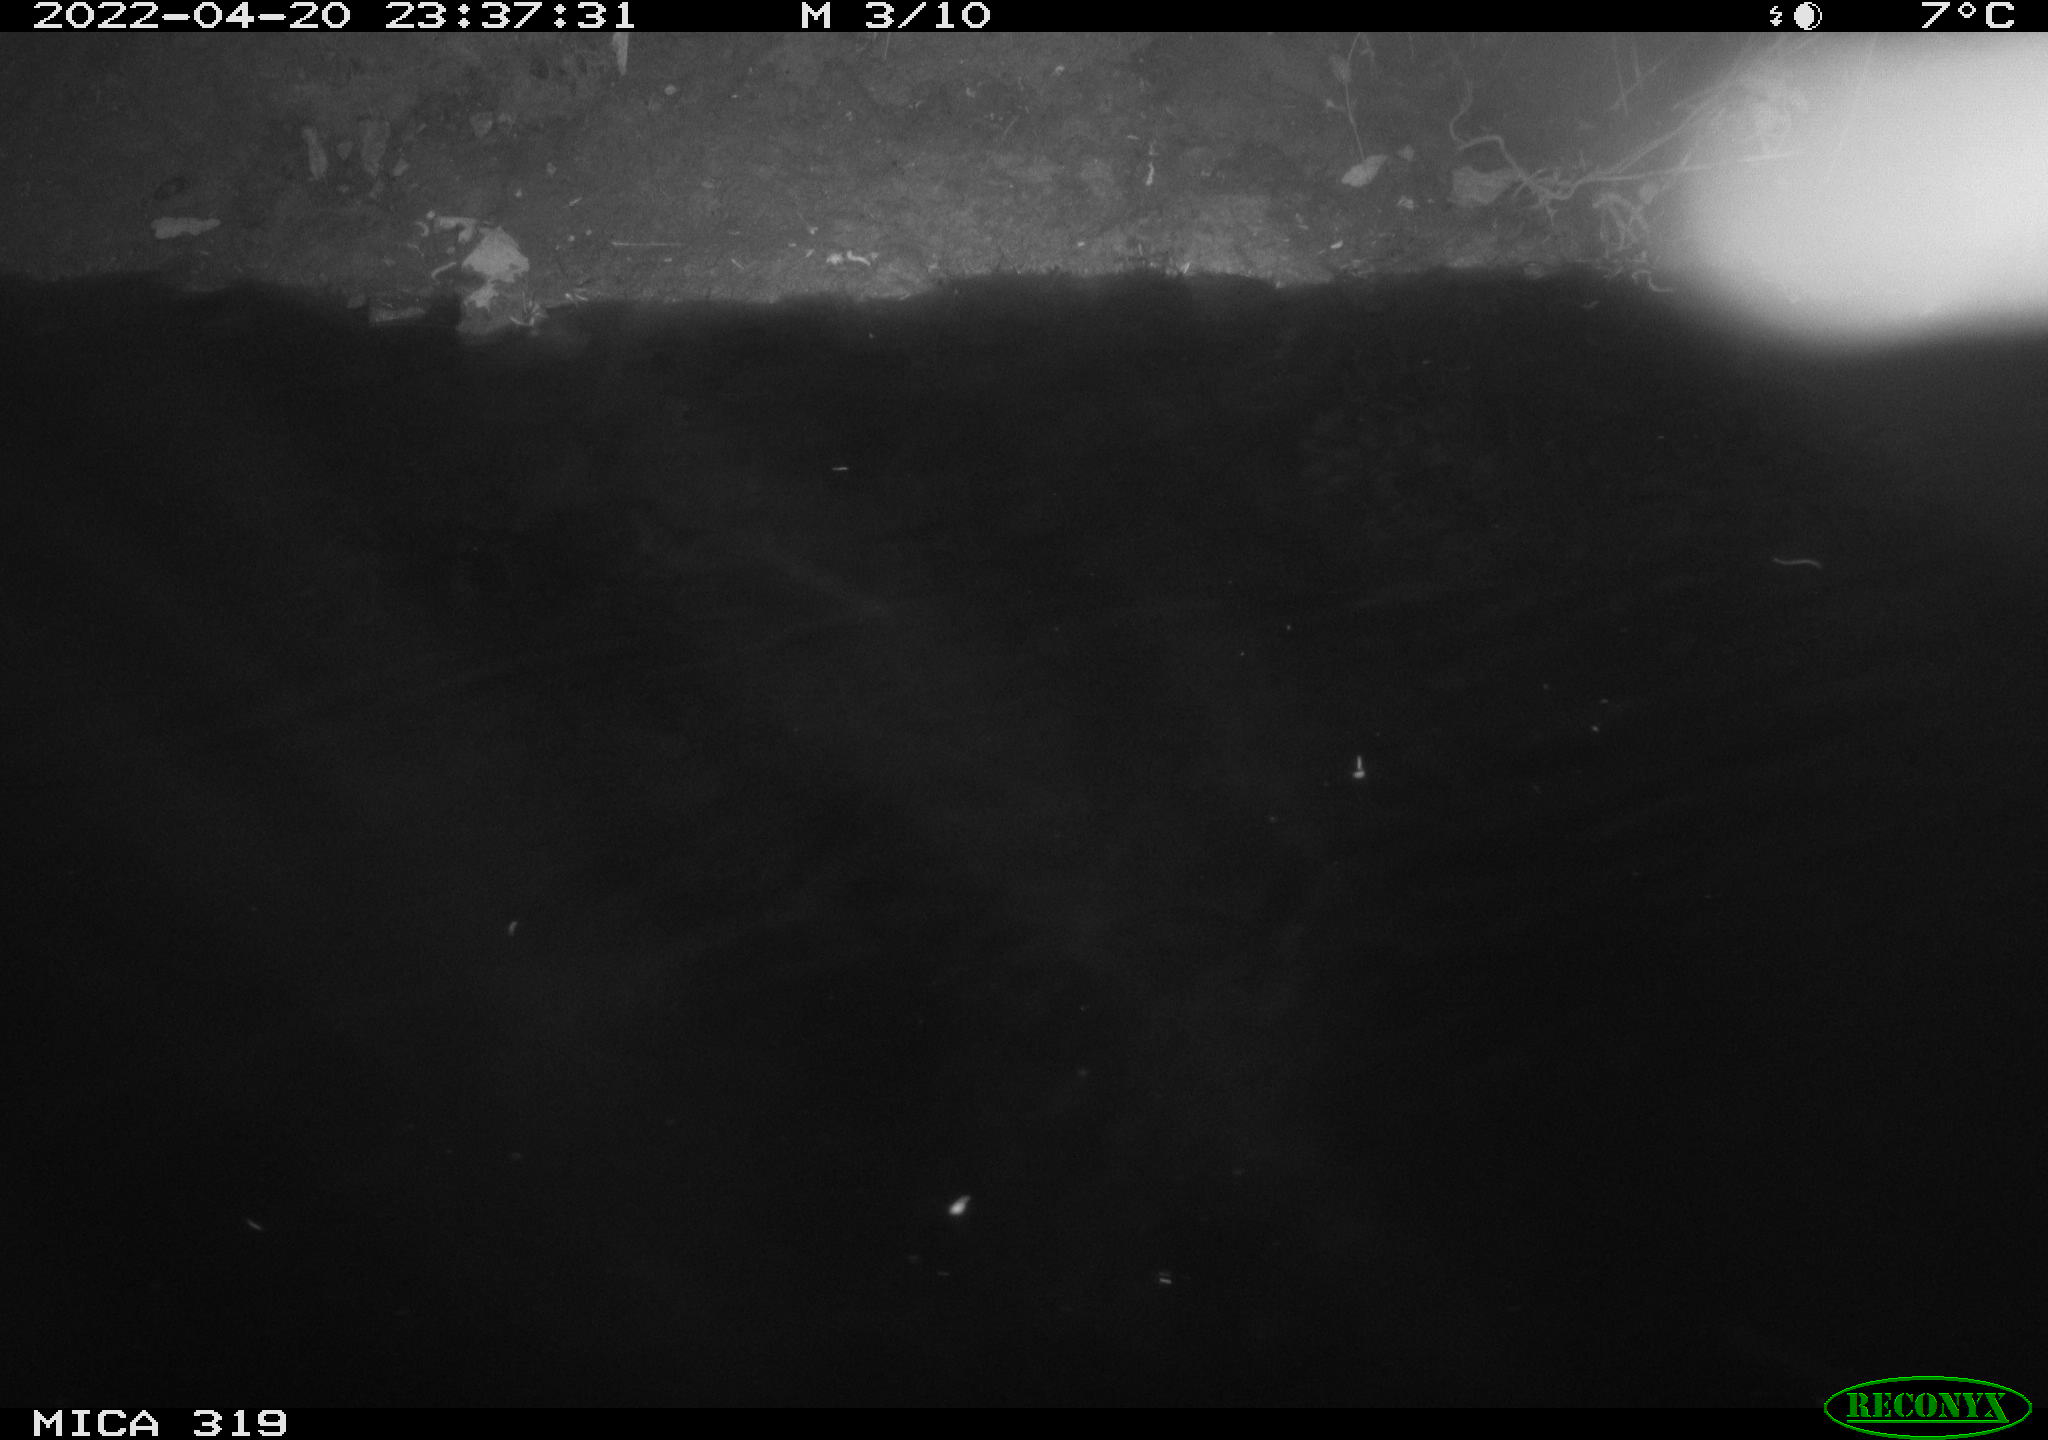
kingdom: Animalia
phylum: Chordata
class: Aves
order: Anseriformes
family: Anatidae
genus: Anas
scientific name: Anas platyrhynchos
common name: Mallard
